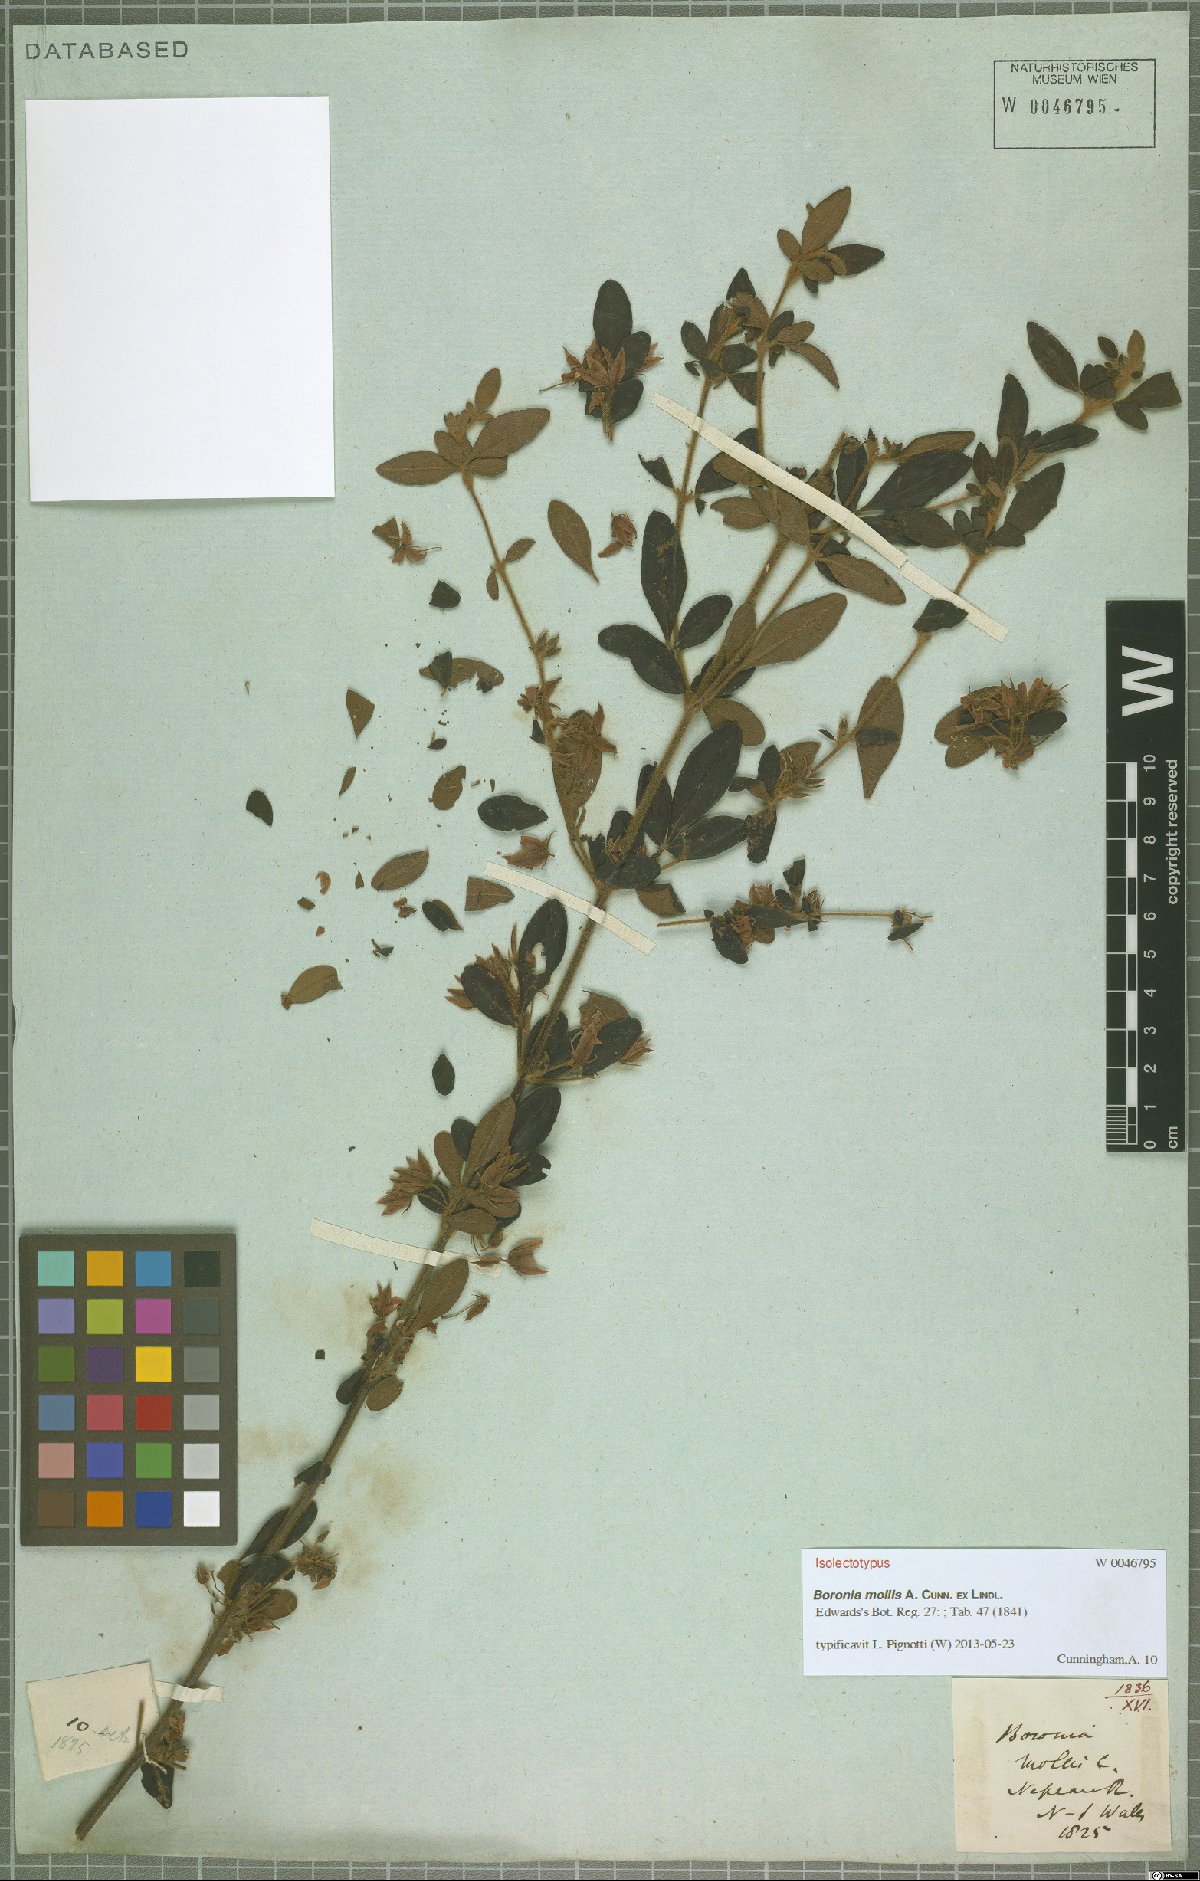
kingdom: Plantae
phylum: Tracheophyta
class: Magnoliopsida
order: Sapindales
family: Rutaceae
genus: Boronia
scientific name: Boronia mollis
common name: Soft boronia
